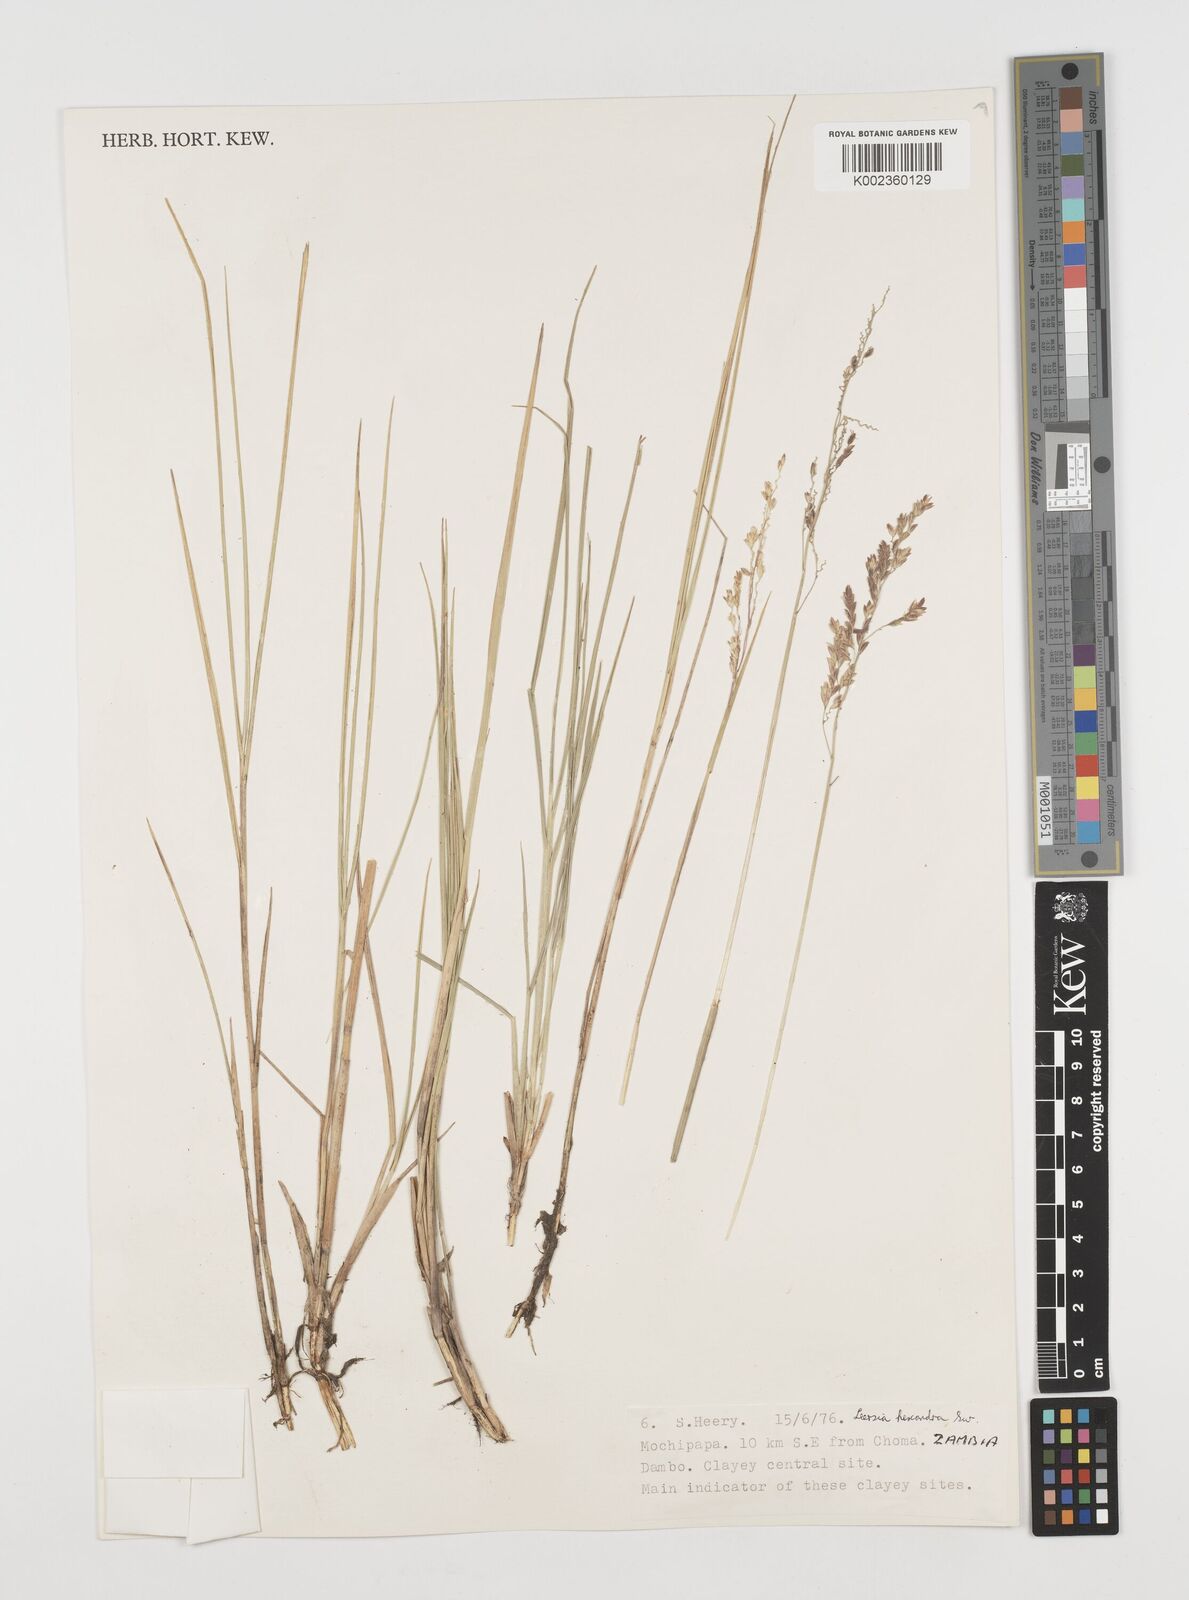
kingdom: Plantae
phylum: Tracheophyta
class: Liliopsida
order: Poales
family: Poaceae
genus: Leersia
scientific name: Leersia hexandra
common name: Southern cut grass
